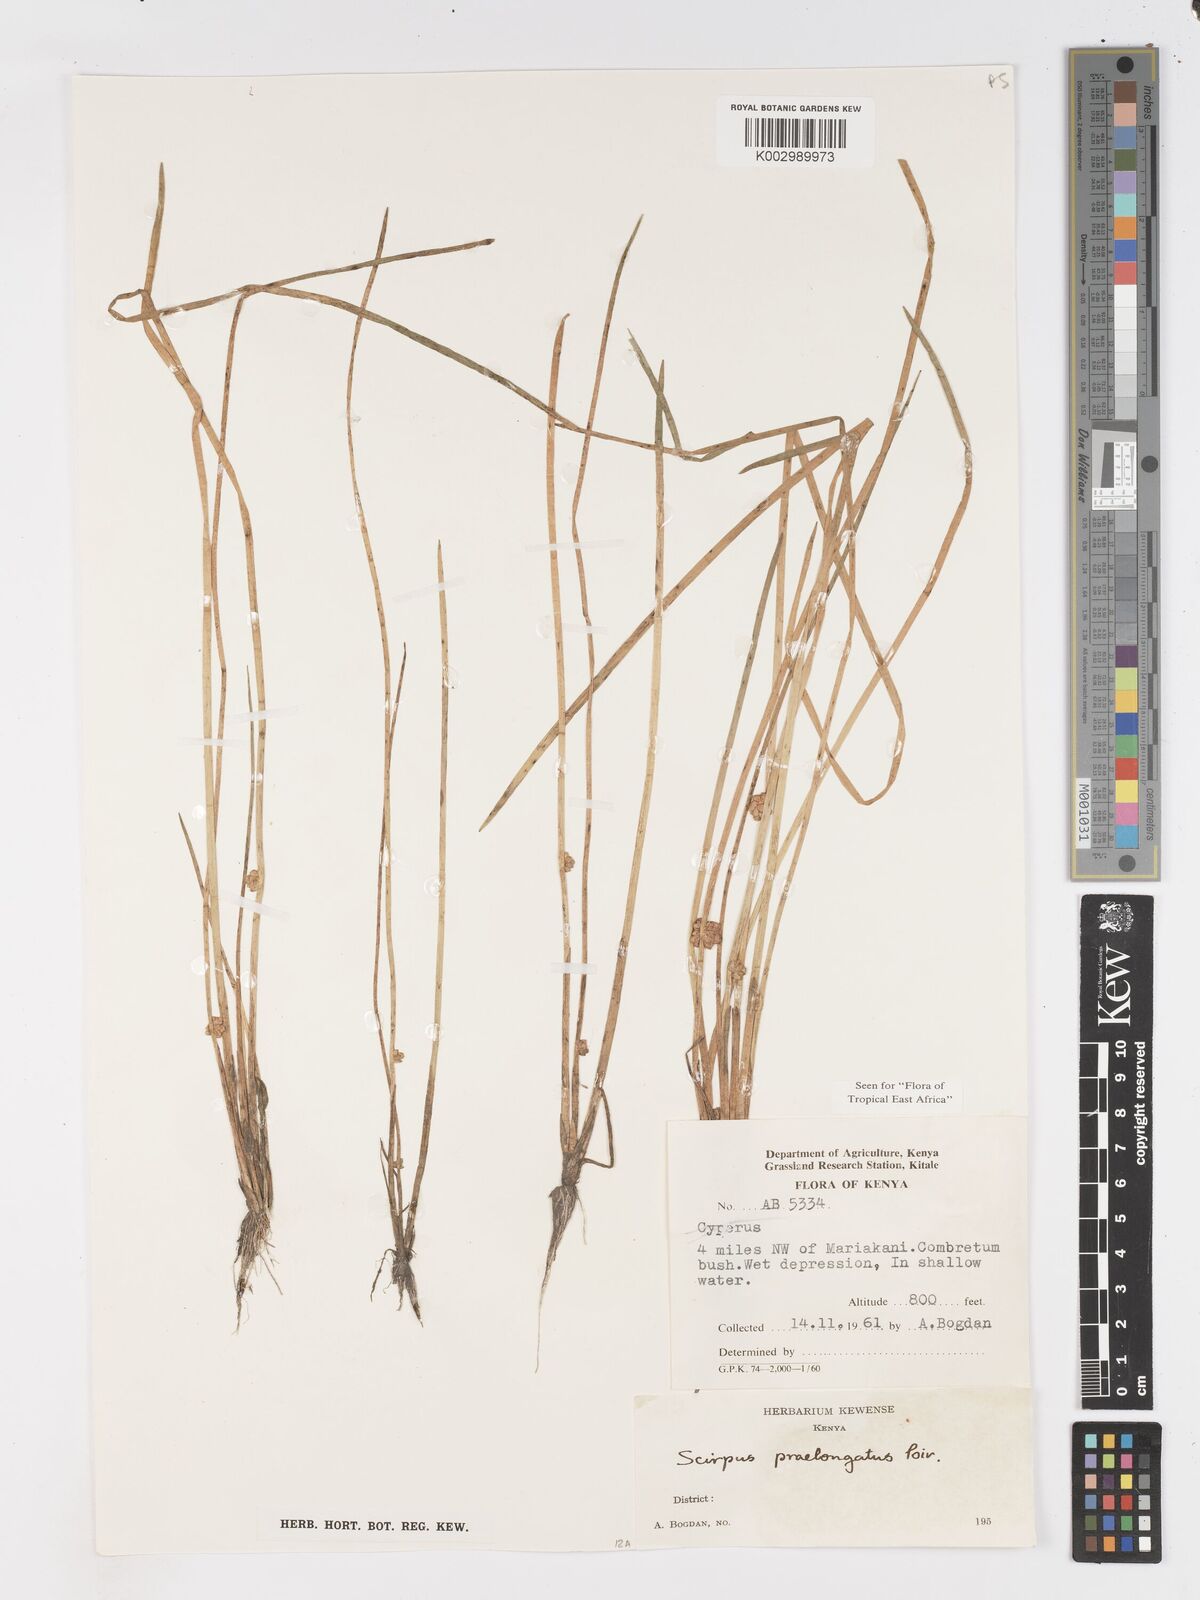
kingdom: Plantae
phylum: Tracheophyta
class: Liliopsida
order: Poales
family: Cyperaceae
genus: Schoenoplectiella
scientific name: Schoenoplectiella senegalensis
